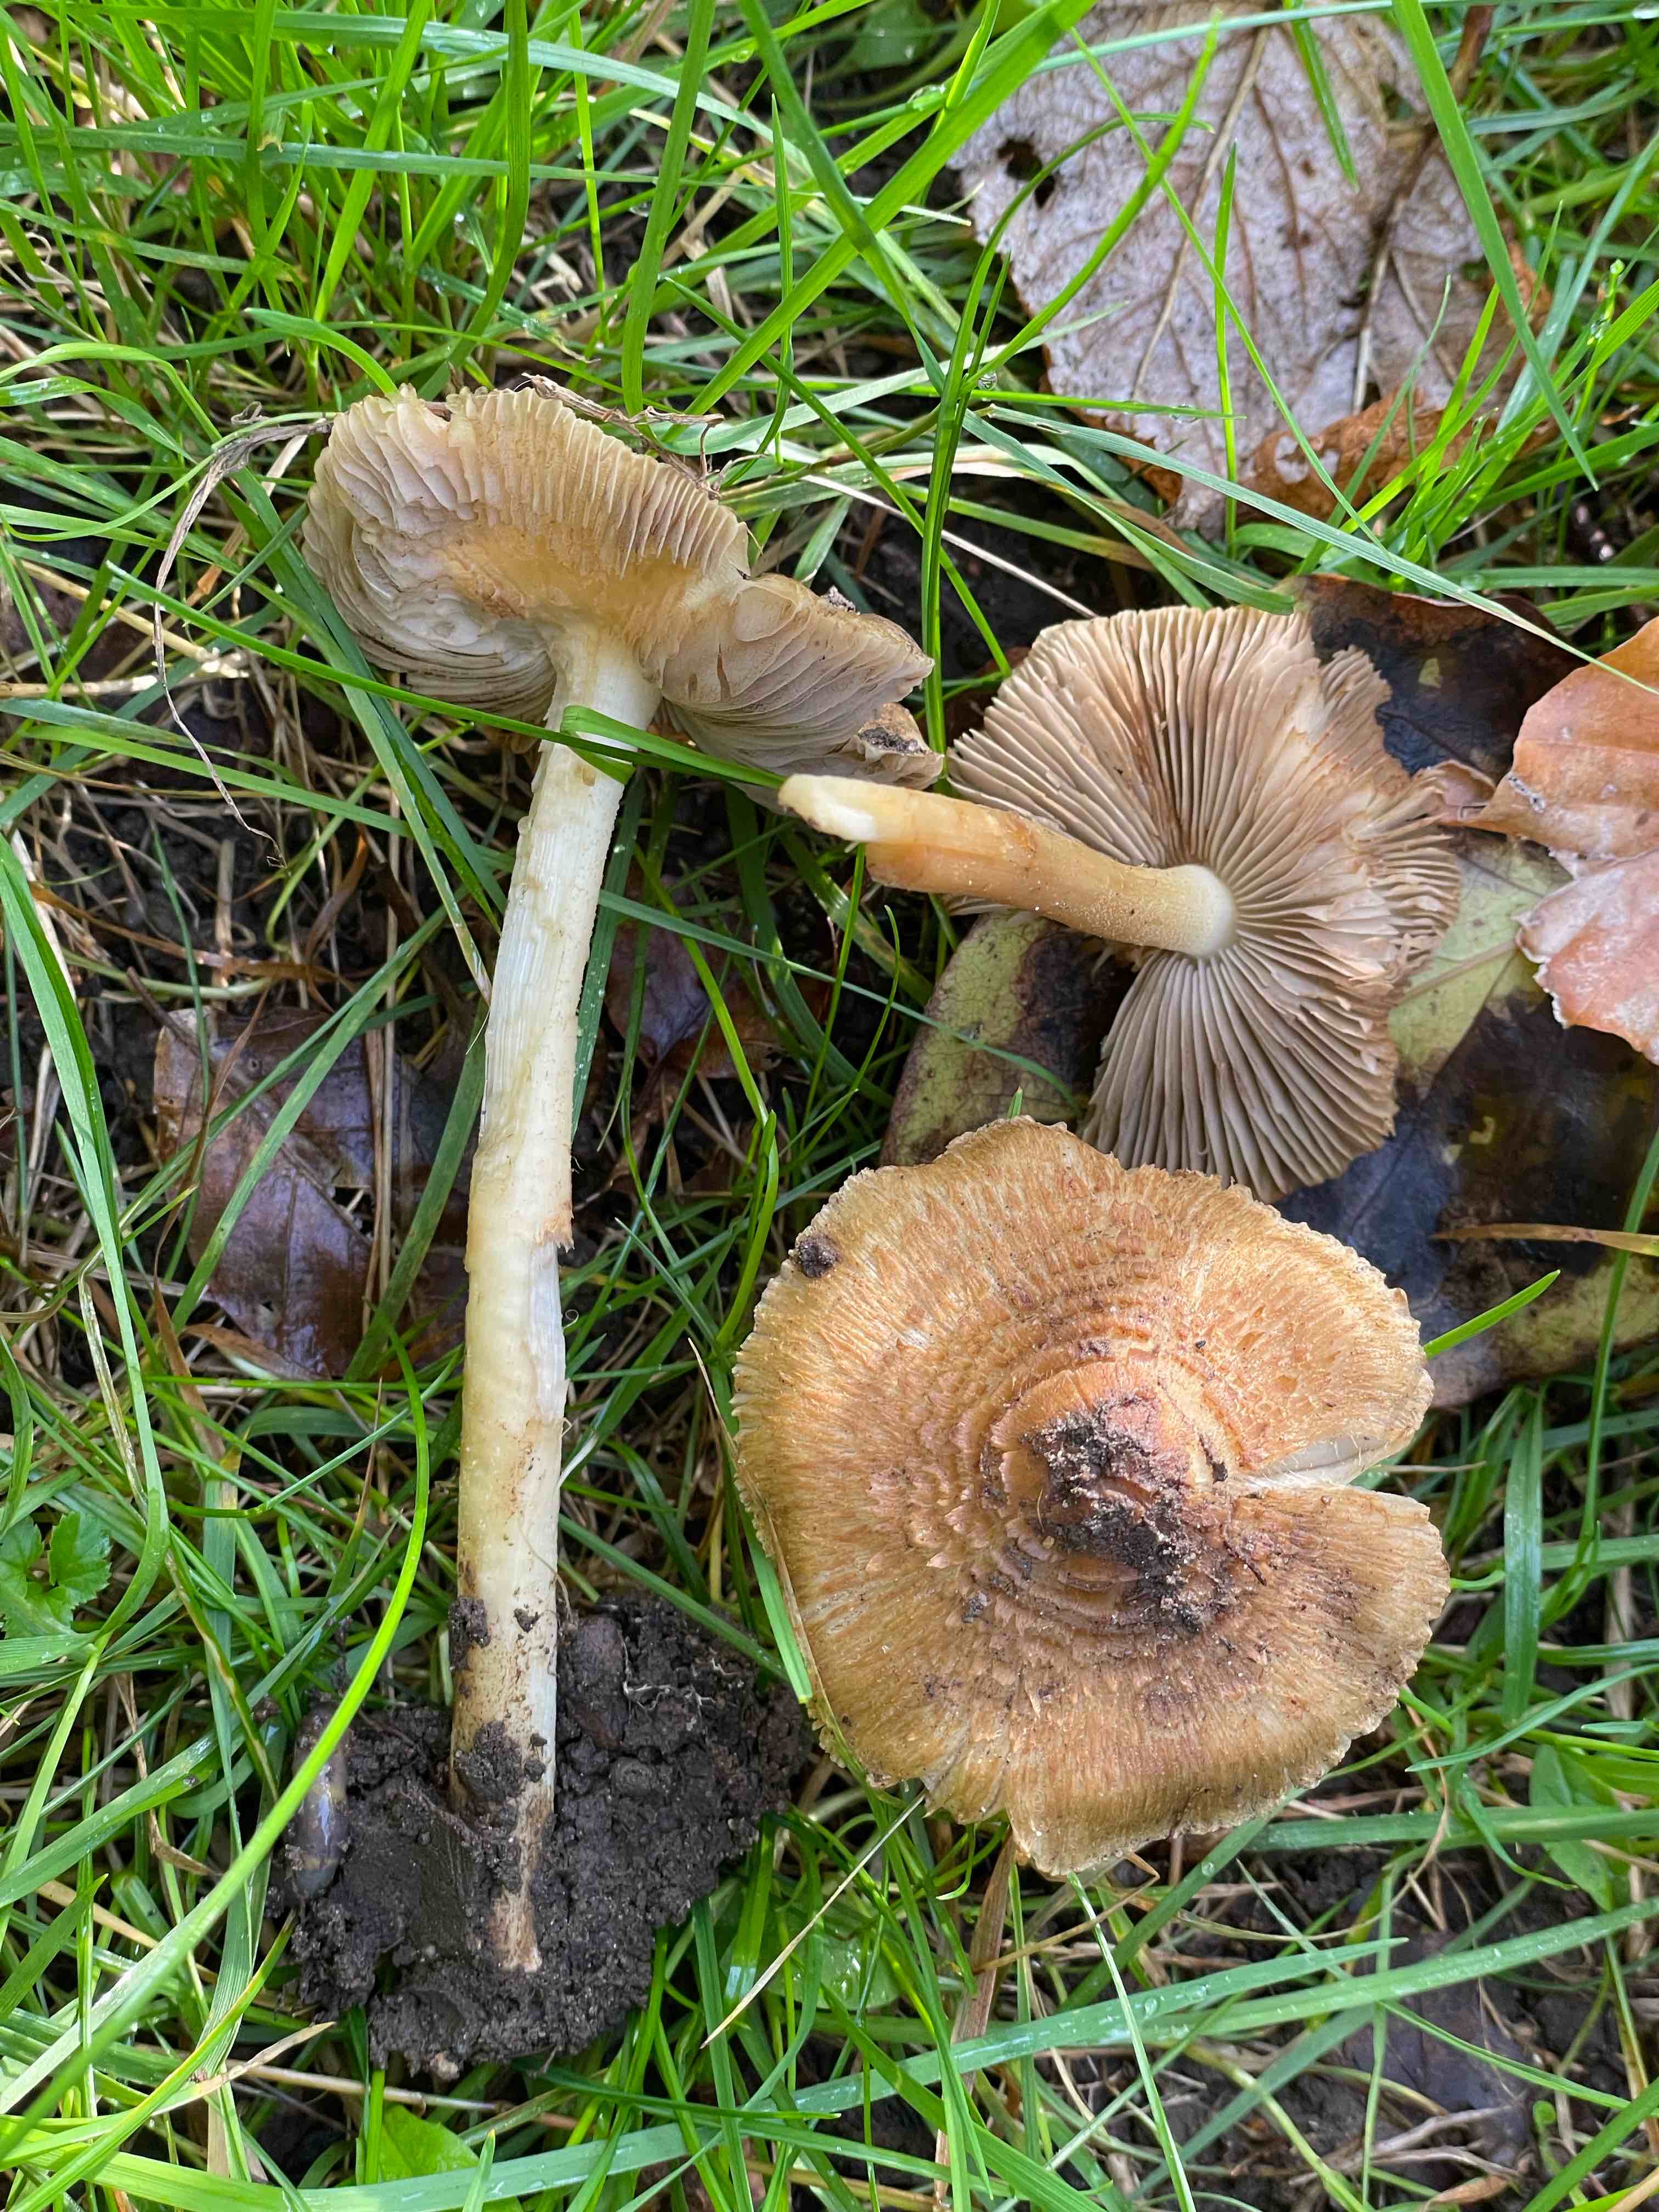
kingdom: Fungi
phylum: Basidiomycota
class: Agaricomycetes
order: Agaricales
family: Inocybaceae
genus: Inocybe
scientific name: Inocybe
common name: trævlhat
